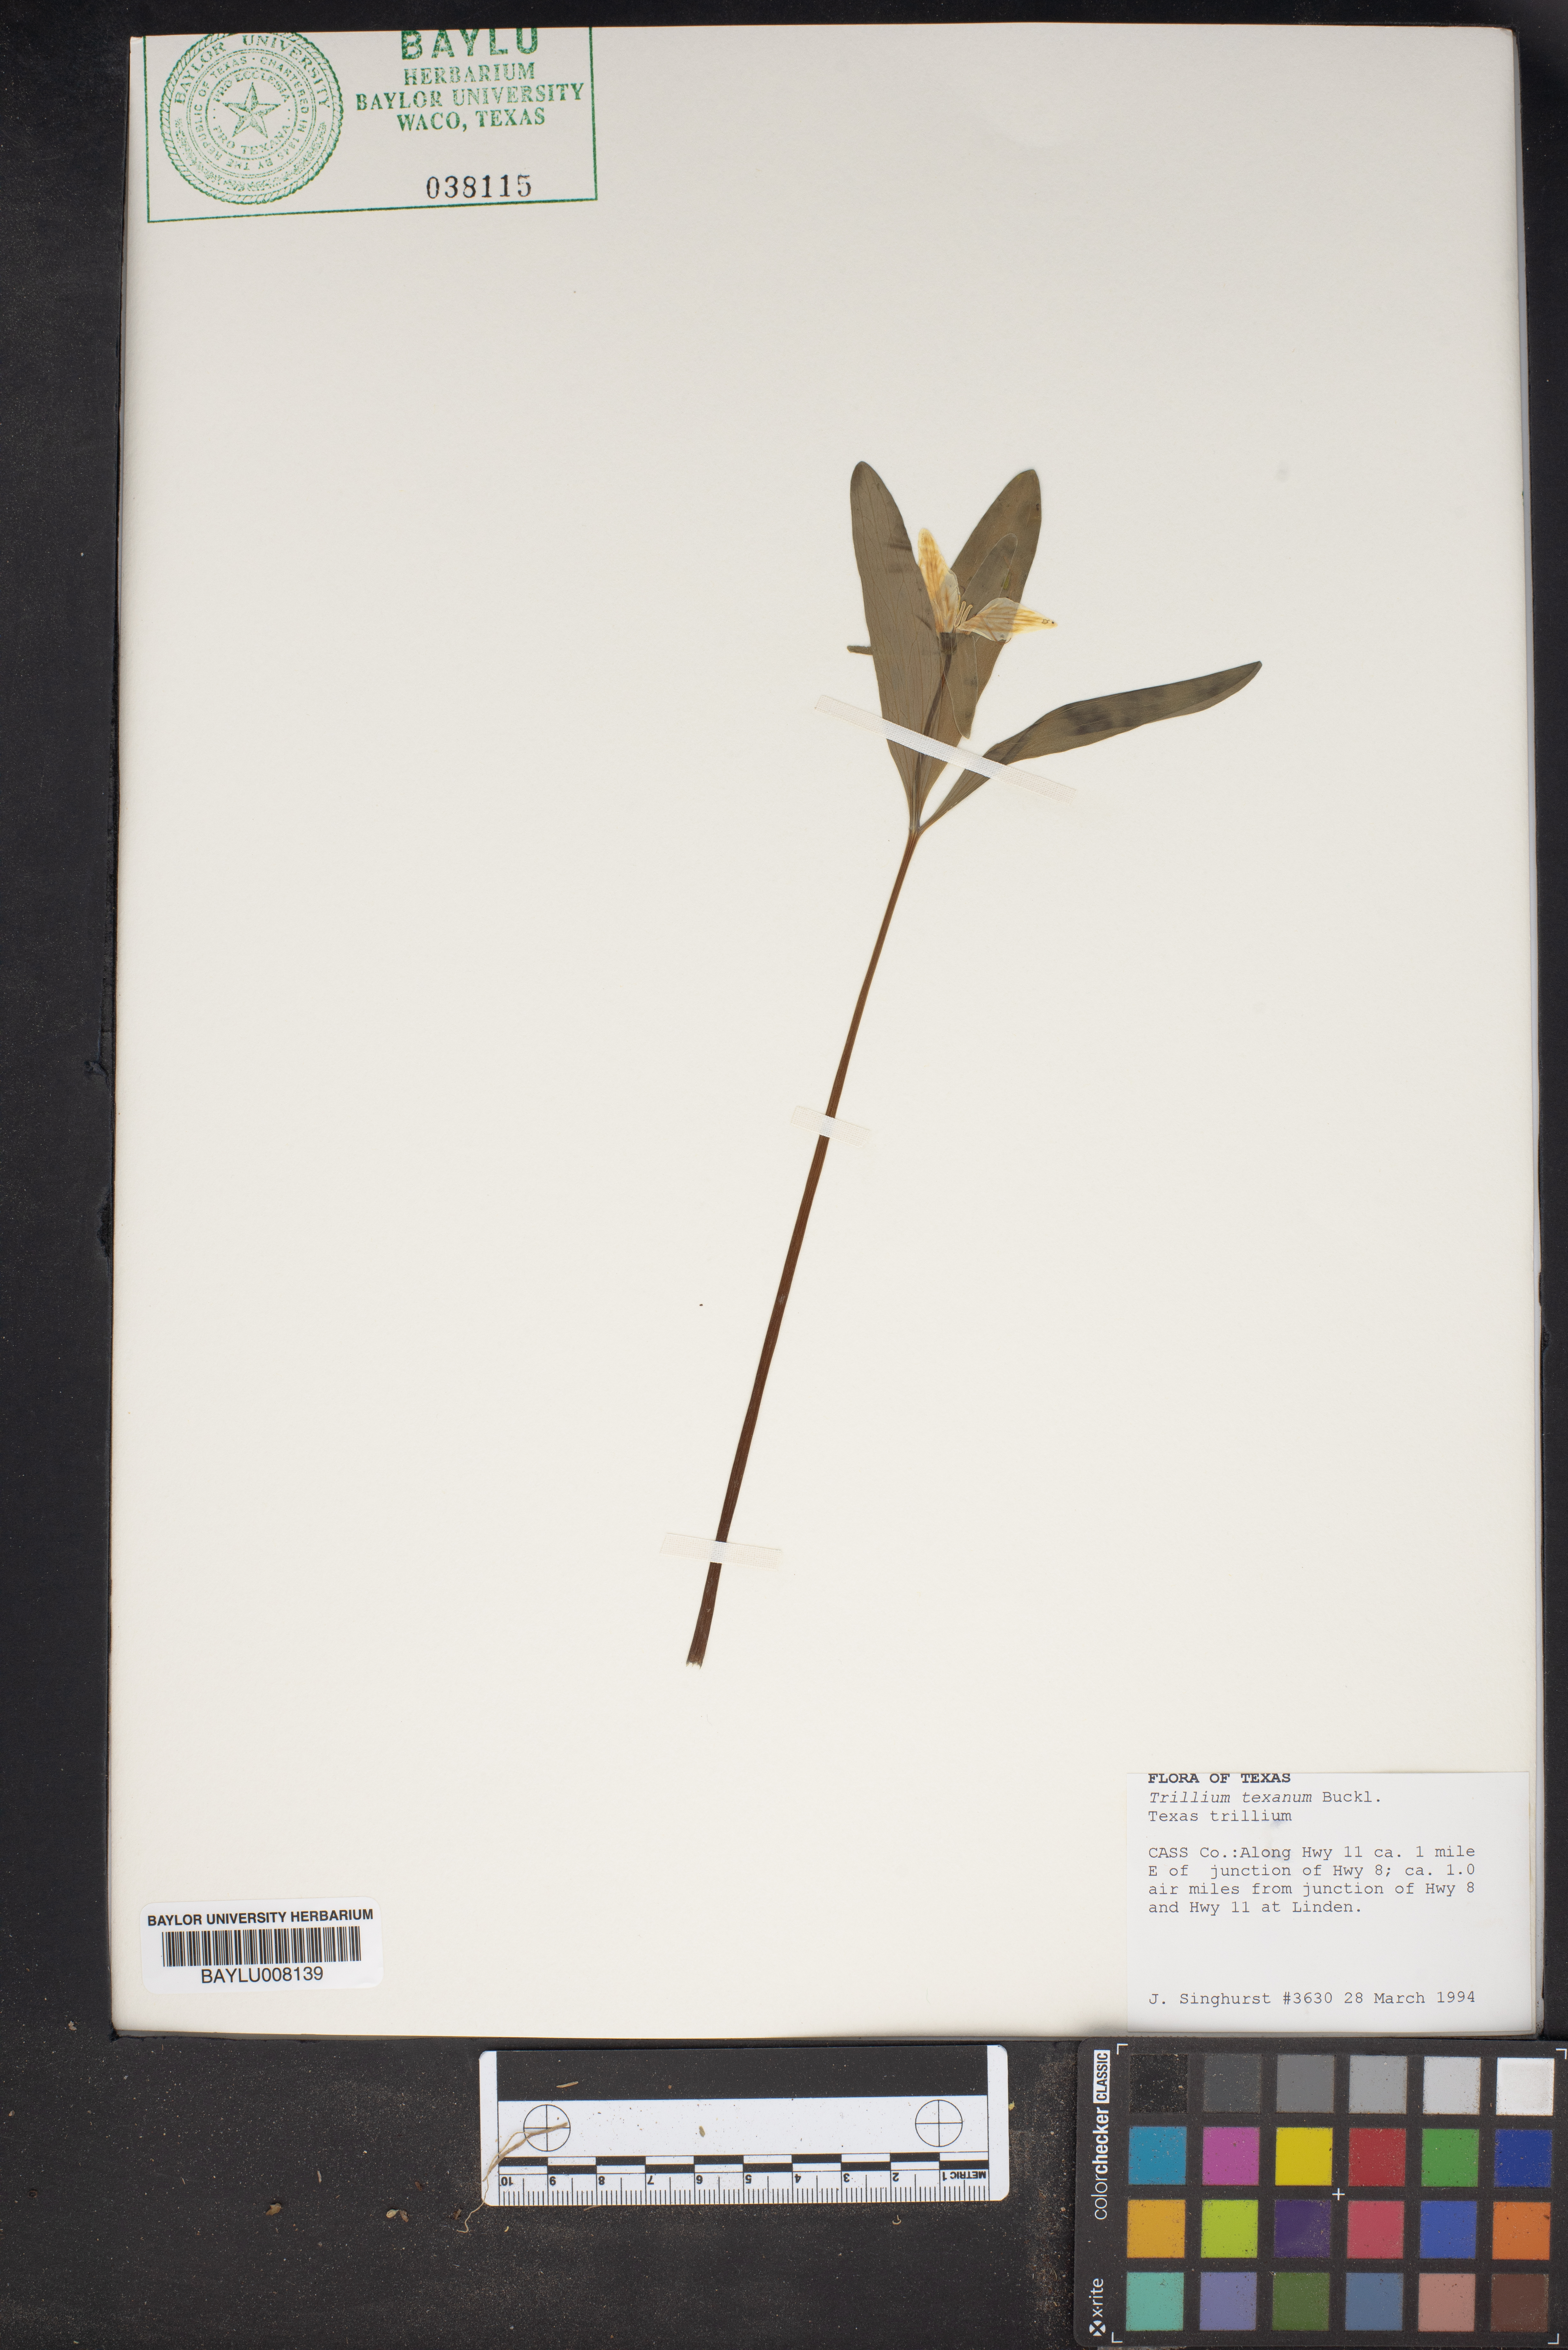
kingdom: Plantae
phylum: Tracheophyta
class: Liliopsida
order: Liliales
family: Melanthiaceae
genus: Trillium
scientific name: Trillium pusillum
